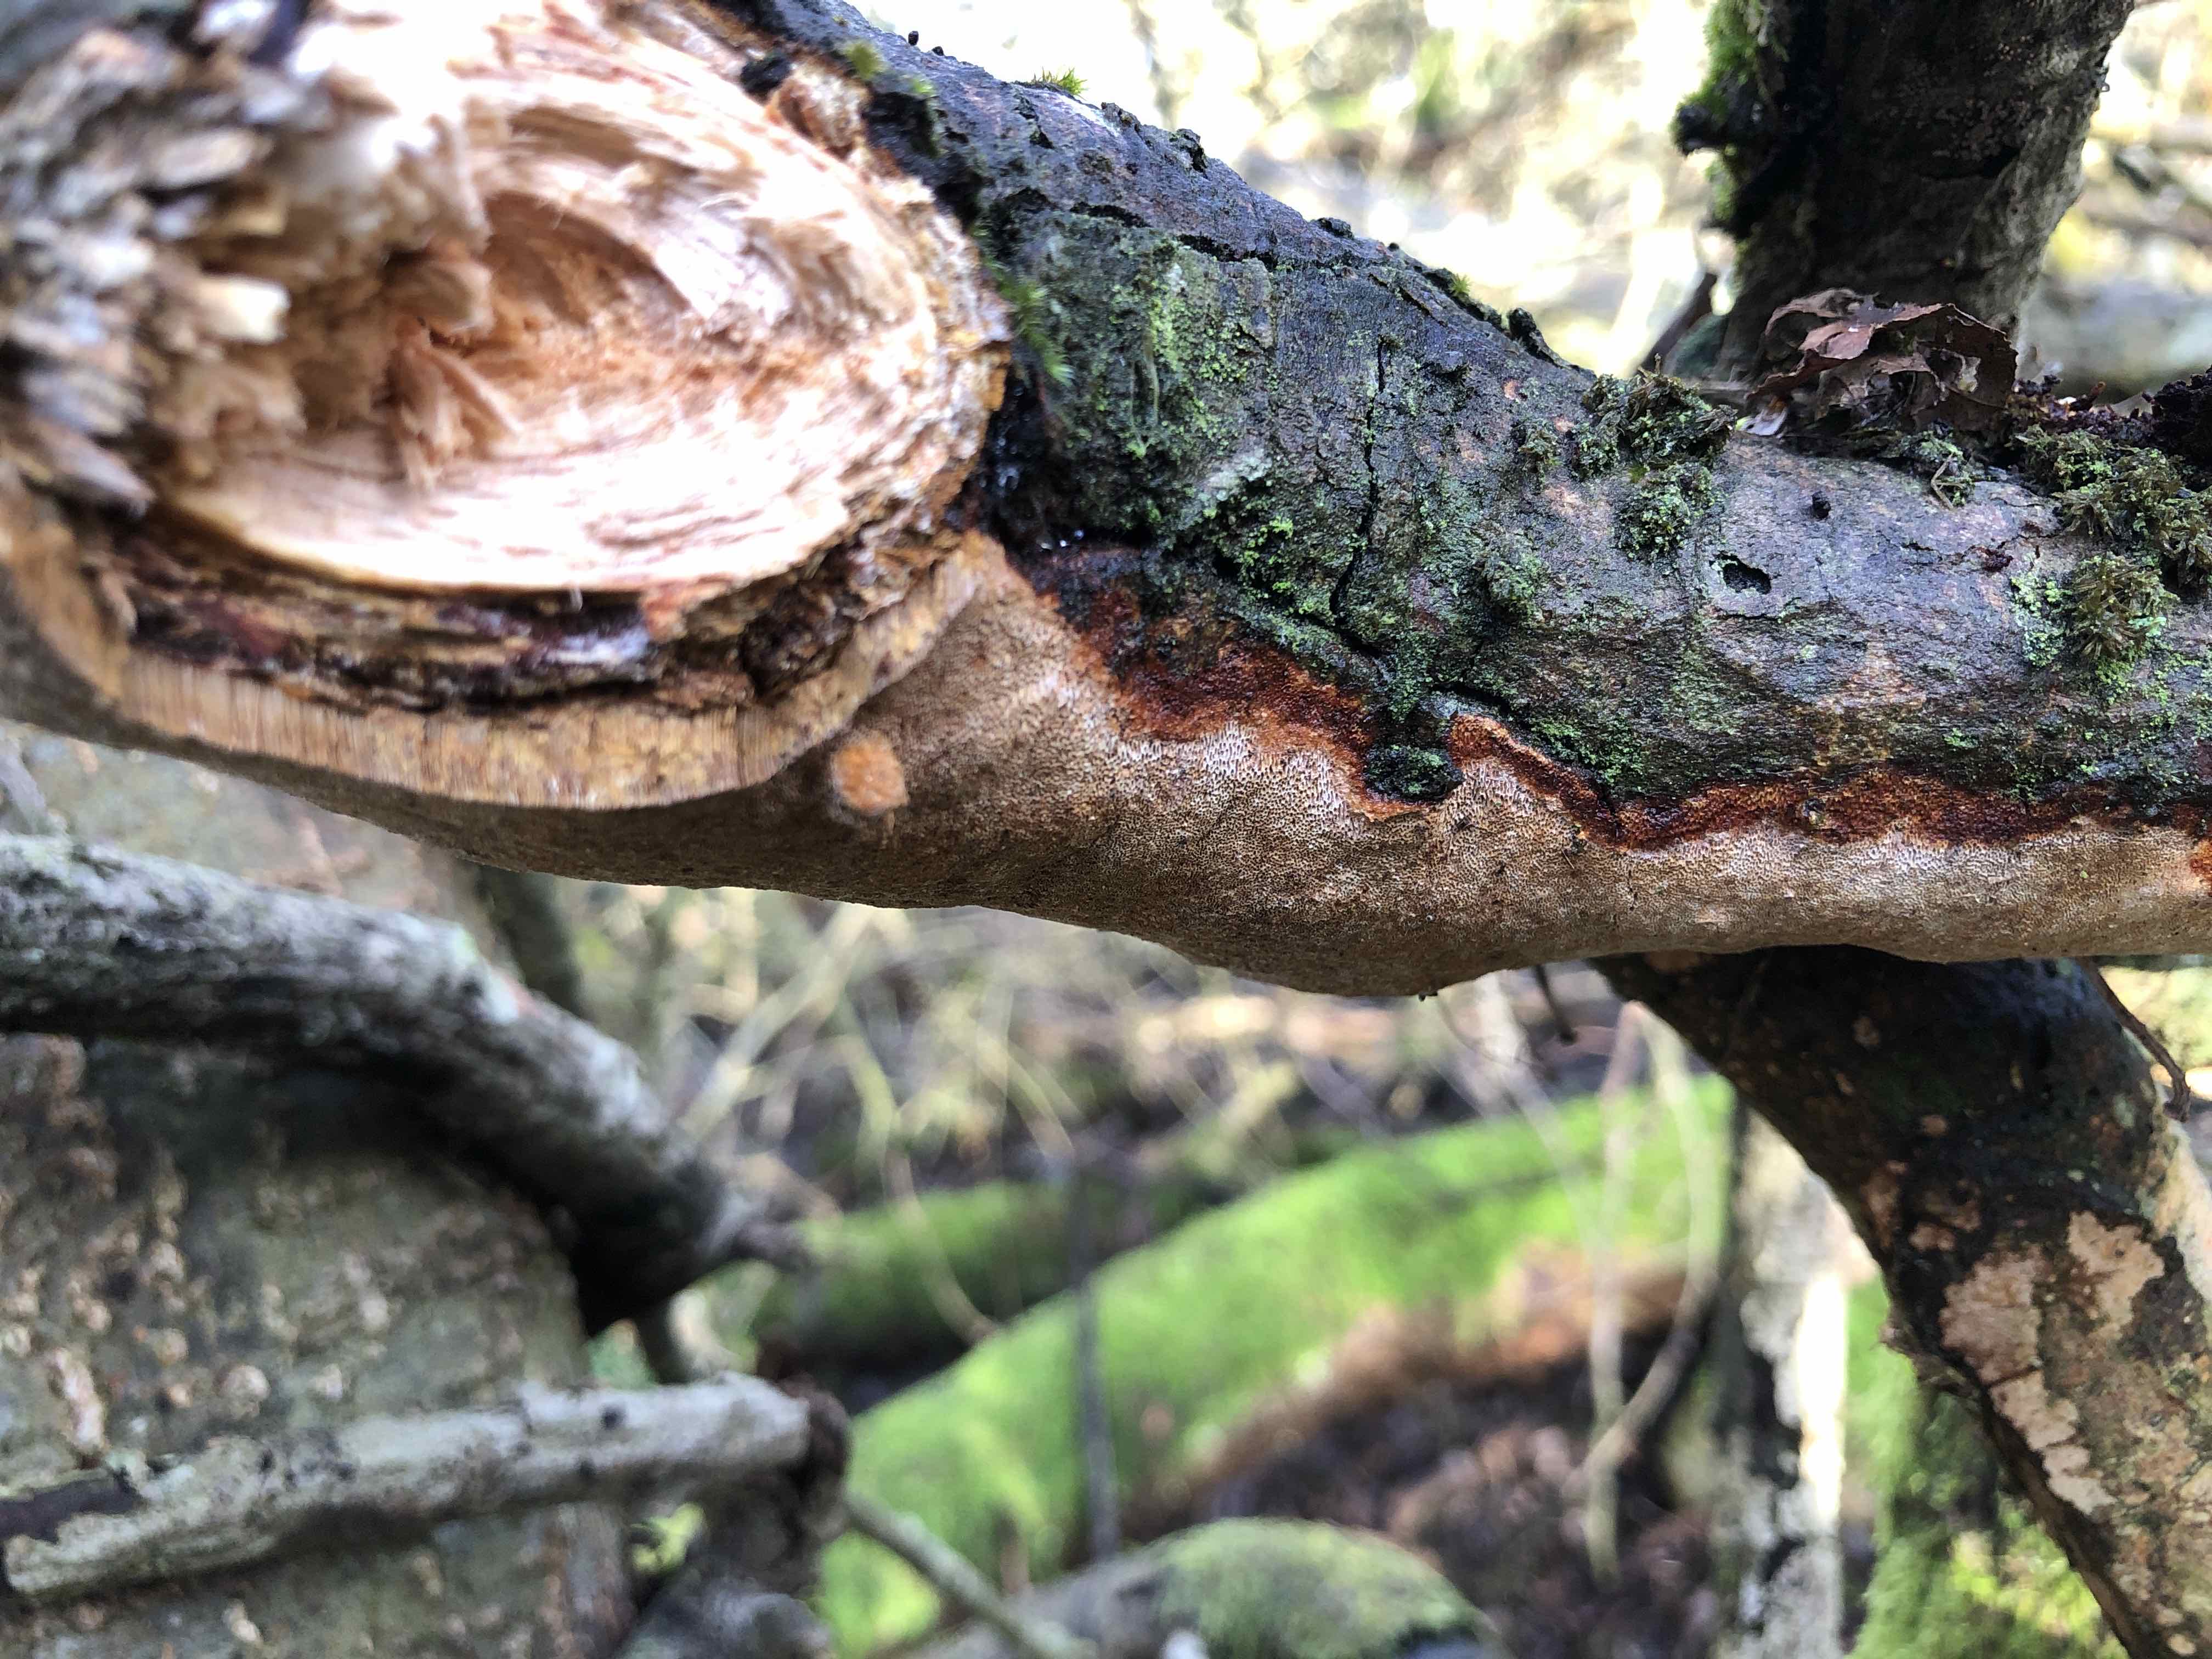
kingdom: Fungi
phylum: Basidiomycota
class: Agaricomycetes
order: Hymenochaetales
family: Hymenochaetaceae
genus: Fuscoporia
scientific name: Fuscoporia ferrea
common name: skorpe-ildporesvamp
